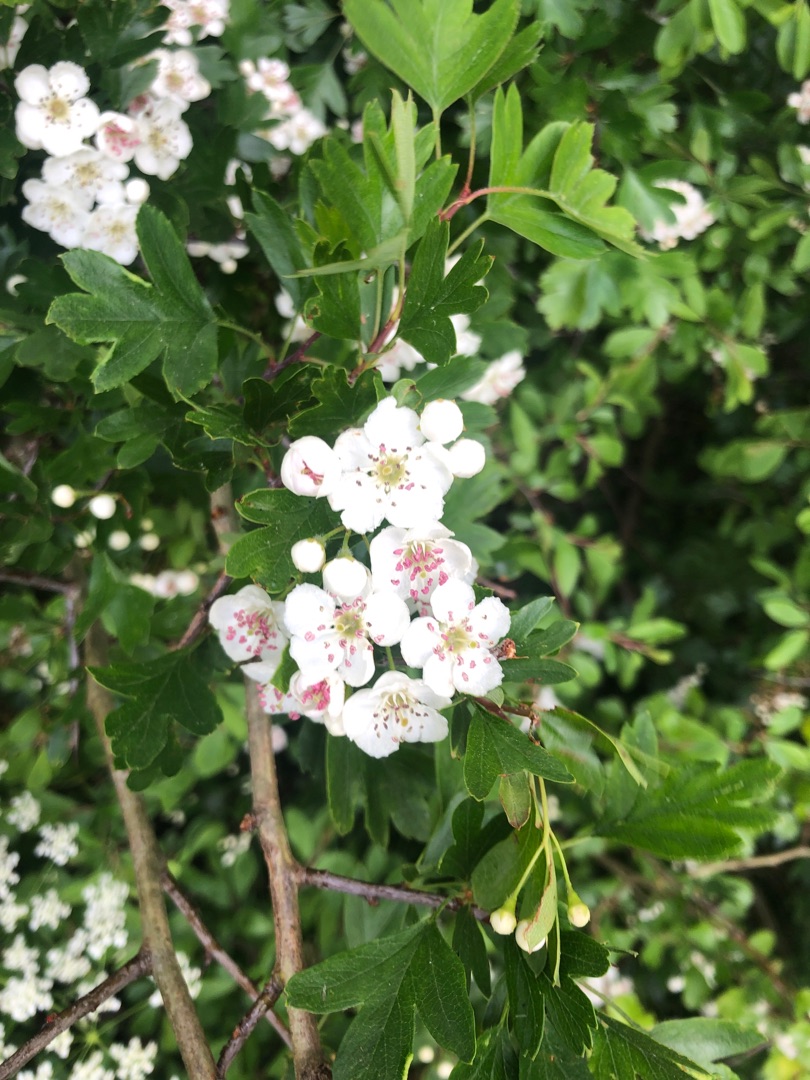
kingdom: Plantae
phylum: Tracheophyta
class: Magnoliopsida
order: Rosales
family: Rosaceae
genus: Crataegus
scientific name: Crataegus monogyna
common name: Engriflet hvidtjørn
